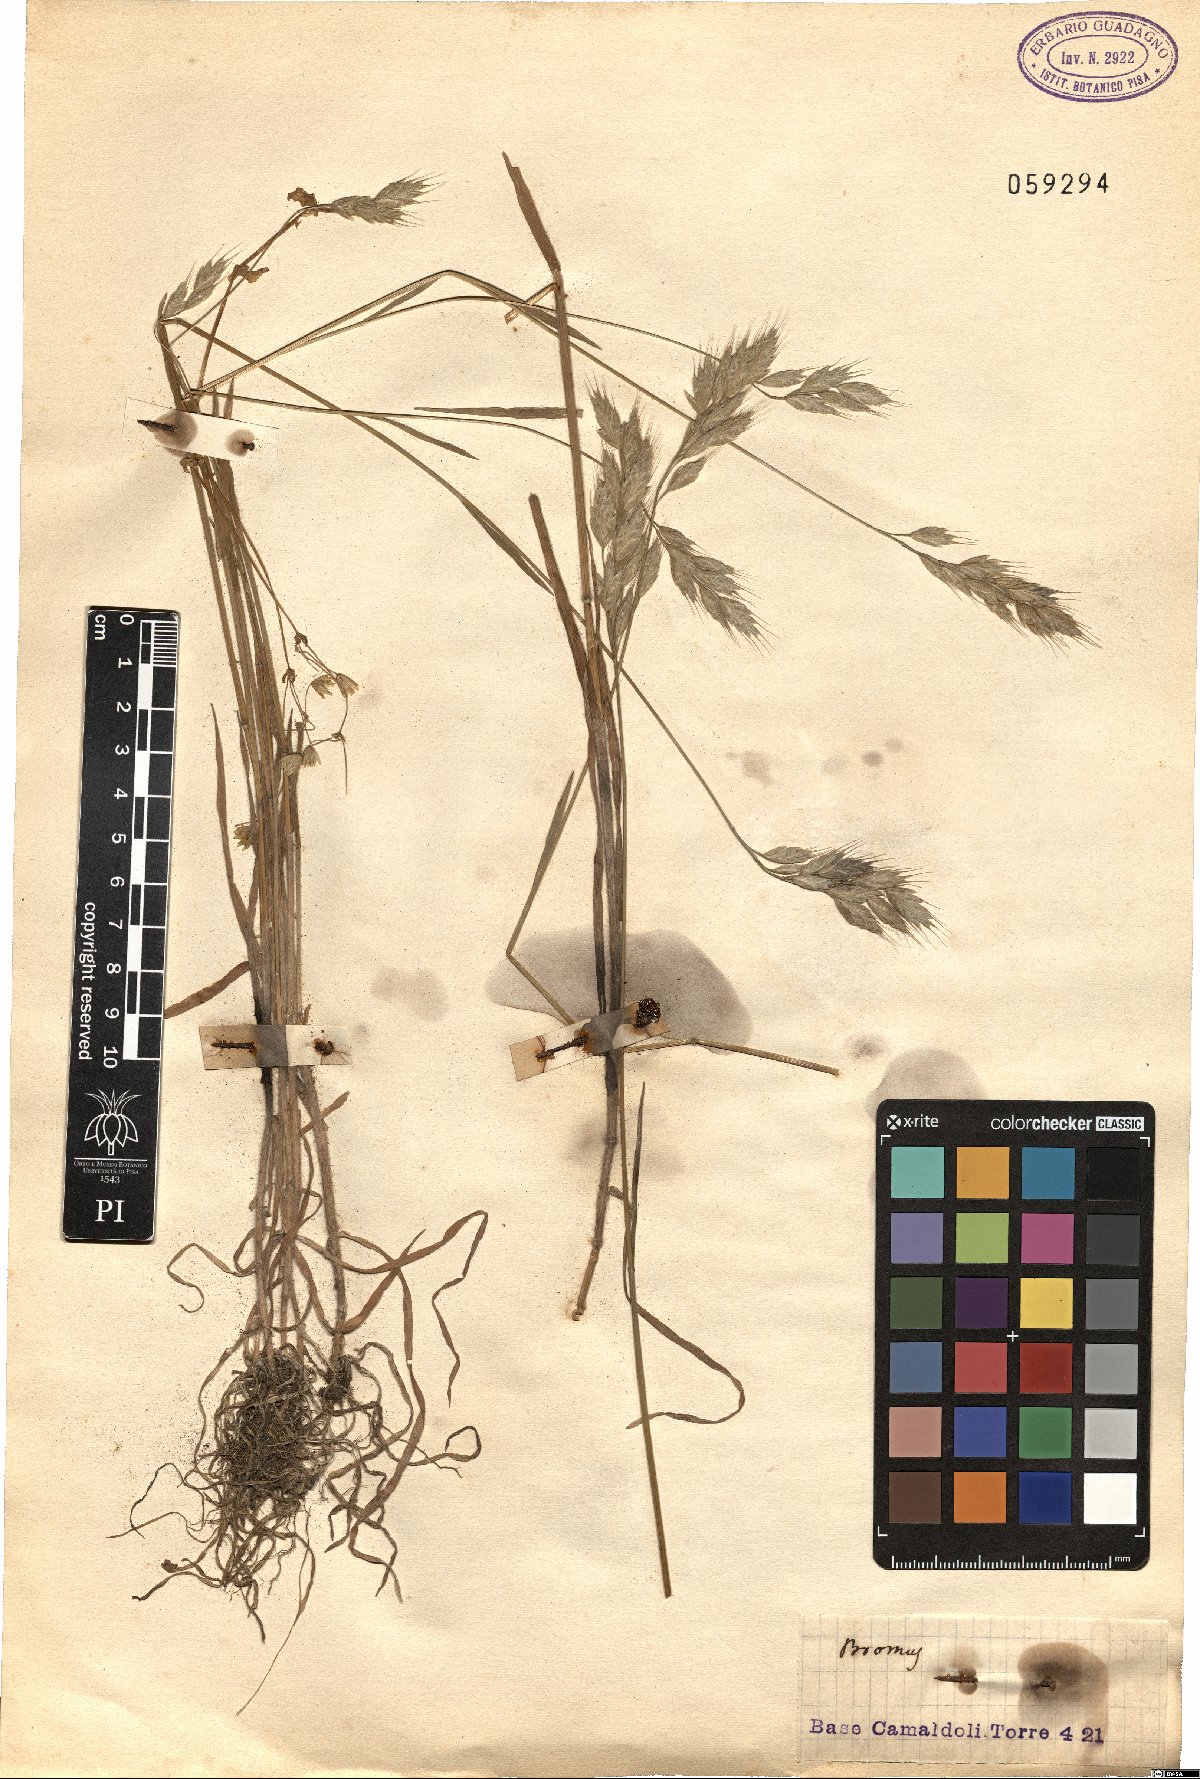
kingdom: Plantae
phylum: Tracheophyta
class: Liliopsida
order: Poales
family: Poaceae
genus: Bromus
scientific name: Bromus
